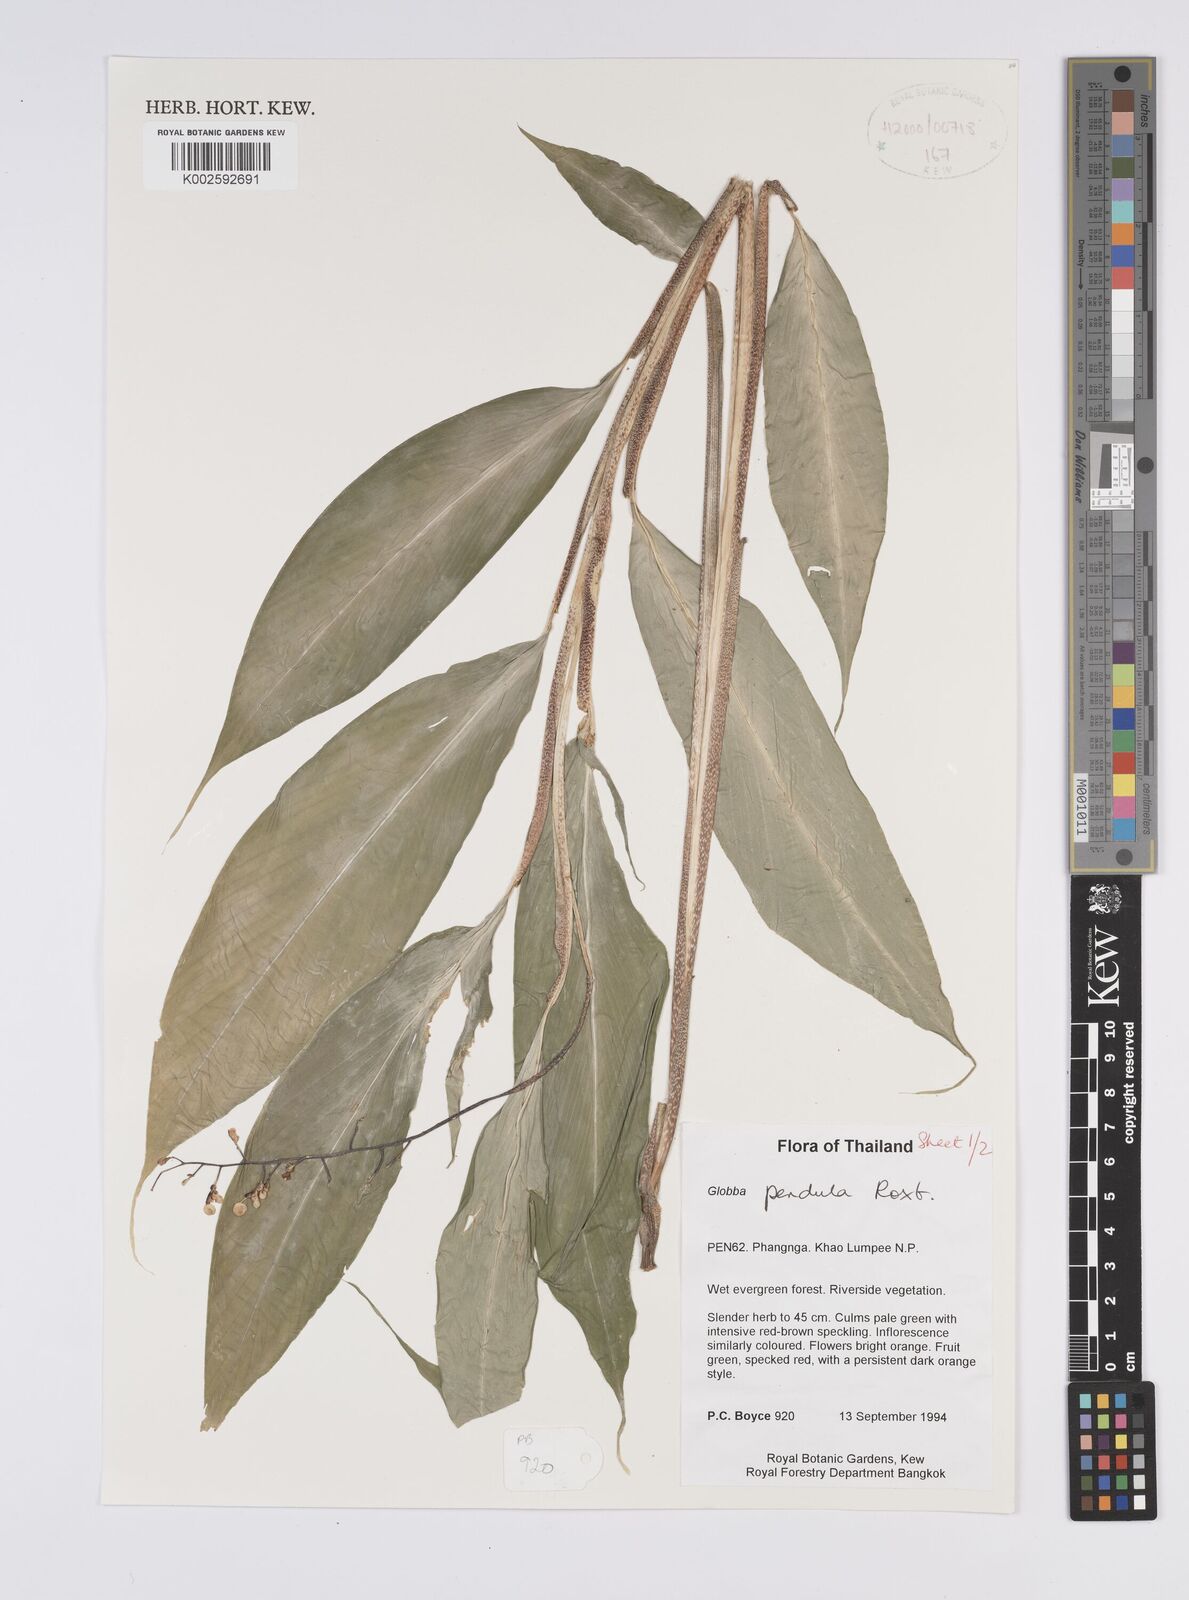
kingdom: Plantae
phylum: Tracheophyta
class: Liliopsida
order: Zingiberales
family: Zingiberaceae
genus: Globba
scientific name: Globba pendula
